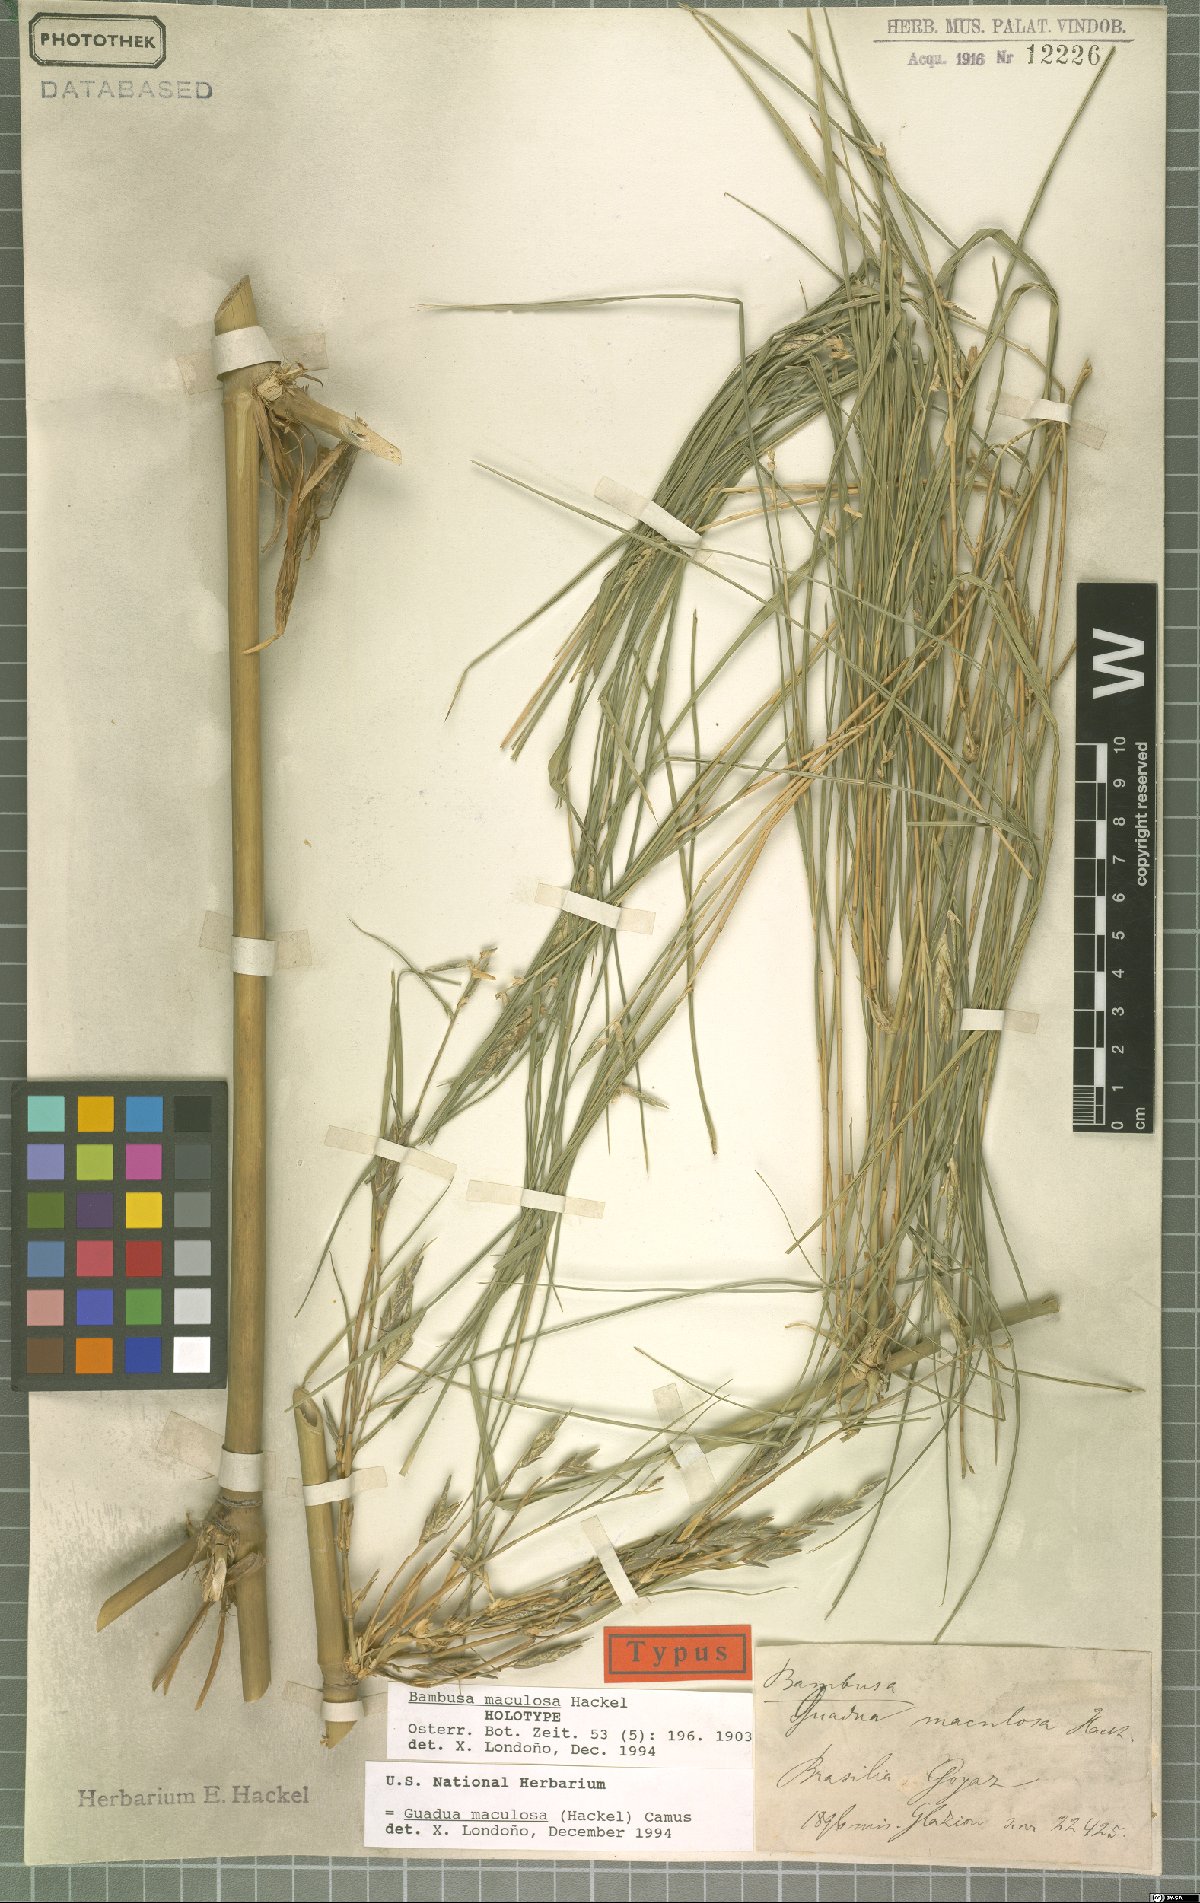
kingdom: Plantae
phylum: Tracheophyta
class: Liliopsida
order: Poales
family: Poaceae
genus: Guadua
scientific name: Guadua maculosa
